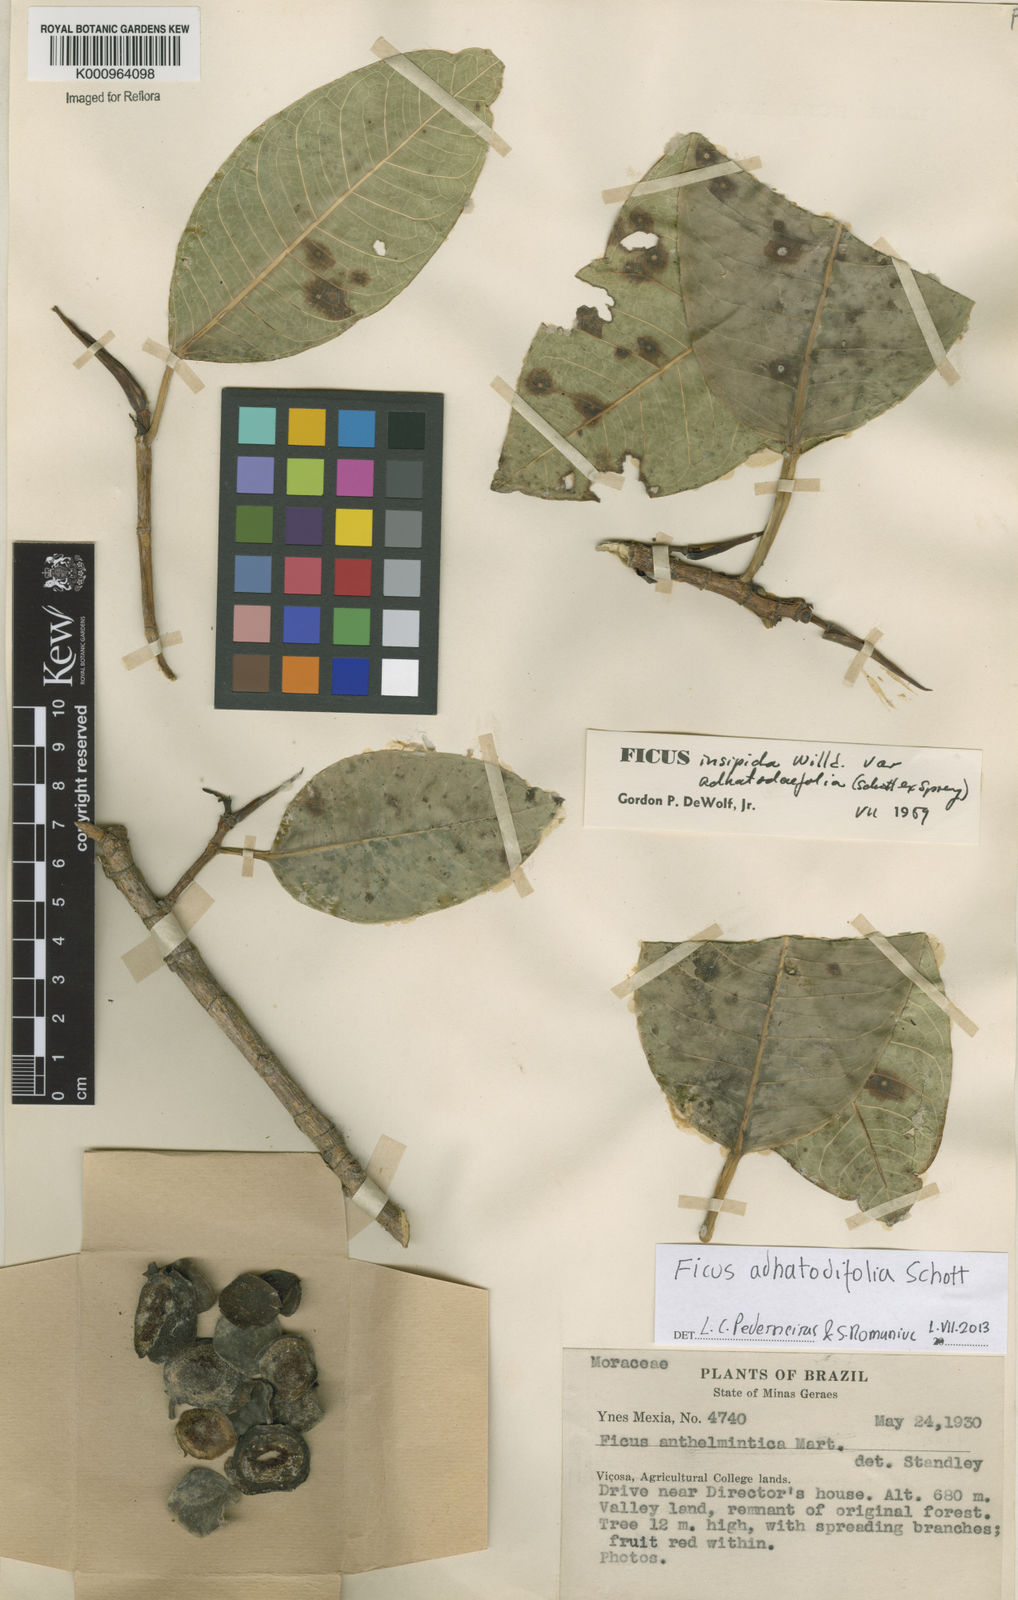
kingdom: Plantae
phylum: Tracheophyta
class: Magnoliopsida
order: Rosales
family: Moraceae
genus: Ficus
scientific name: Ficus
